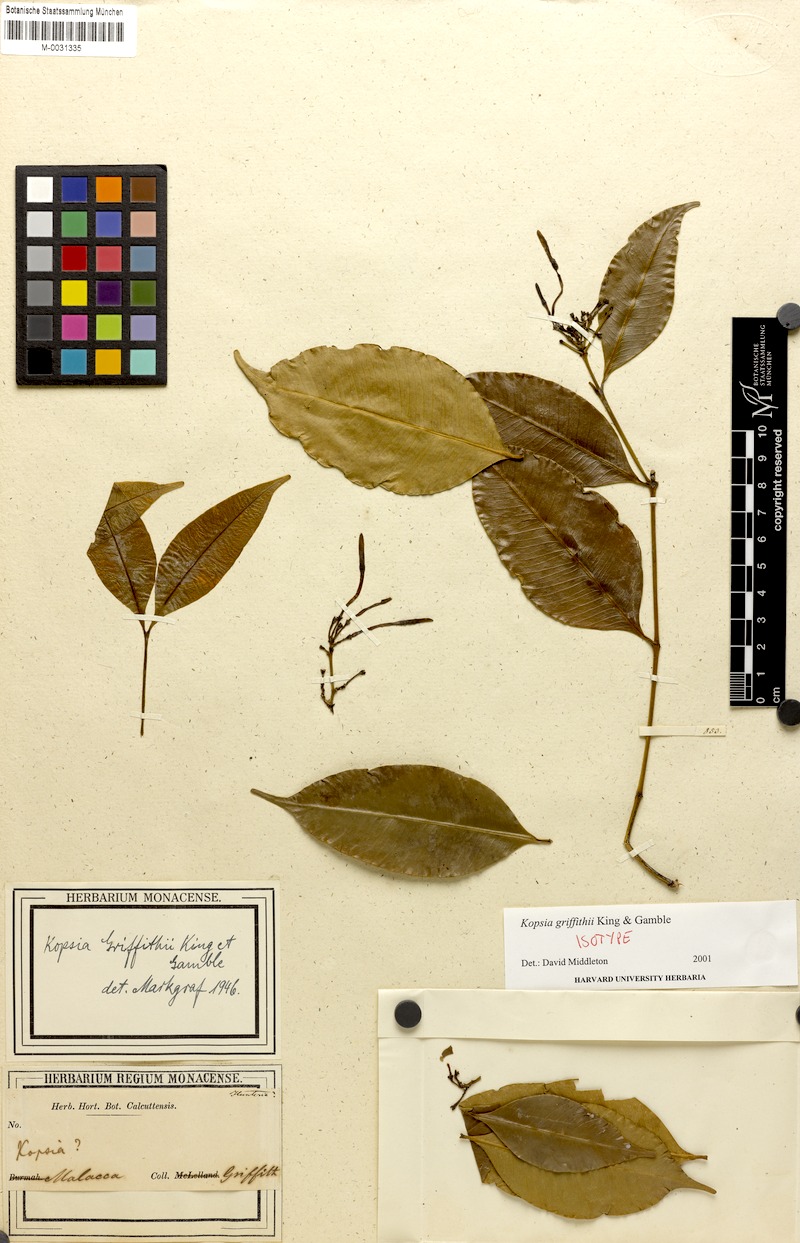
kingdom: Plantae
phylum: Tracheophyta
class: Magnoliopsida
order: Gentianales
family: Apocynaceae
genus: Kopsia
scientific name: Kopsia griffithii
